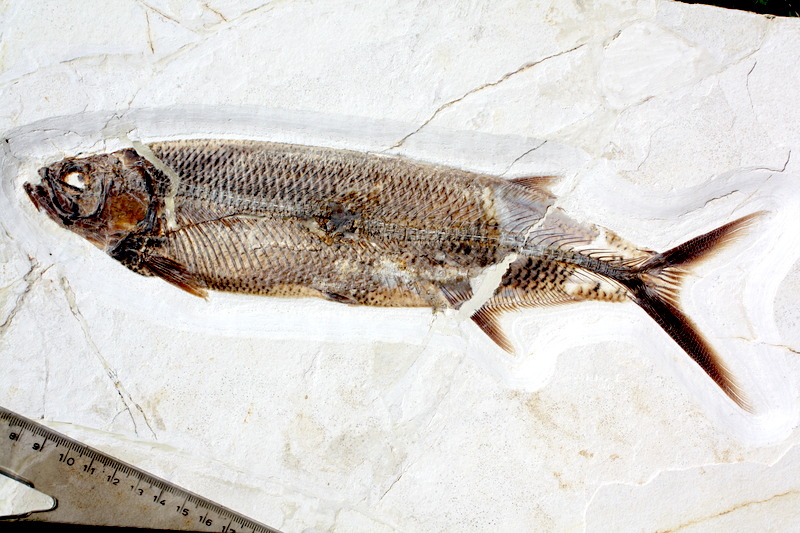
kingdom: Animalia
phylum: Chordata
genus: Thrissops
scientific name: Thrissops formosus
